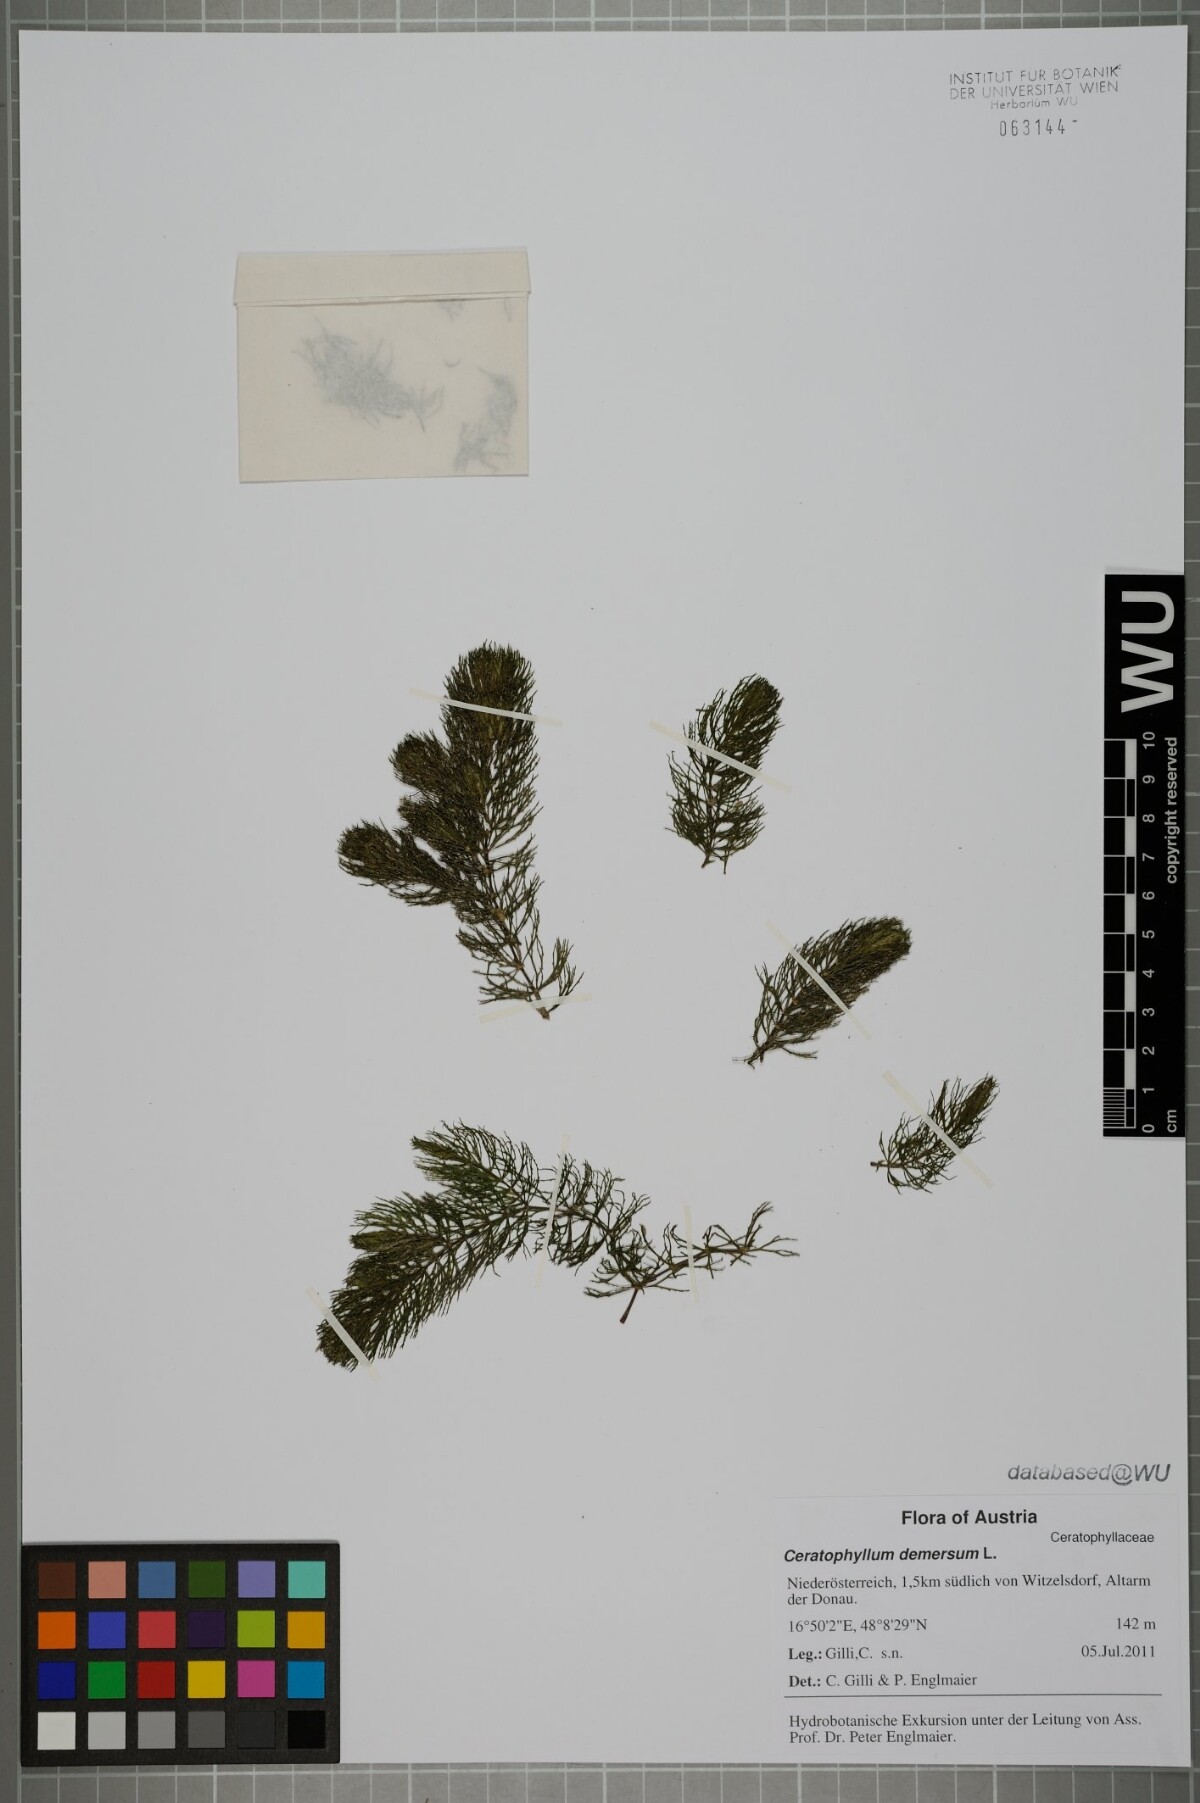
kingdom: Plantae
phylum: Tracheophyta
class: Magnoliopsida
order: Ceratophyllales
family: Ceratophyllaceae
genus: Ceratophyllum
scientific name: Ceratophyllum demersum
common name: Rigid hornwort
